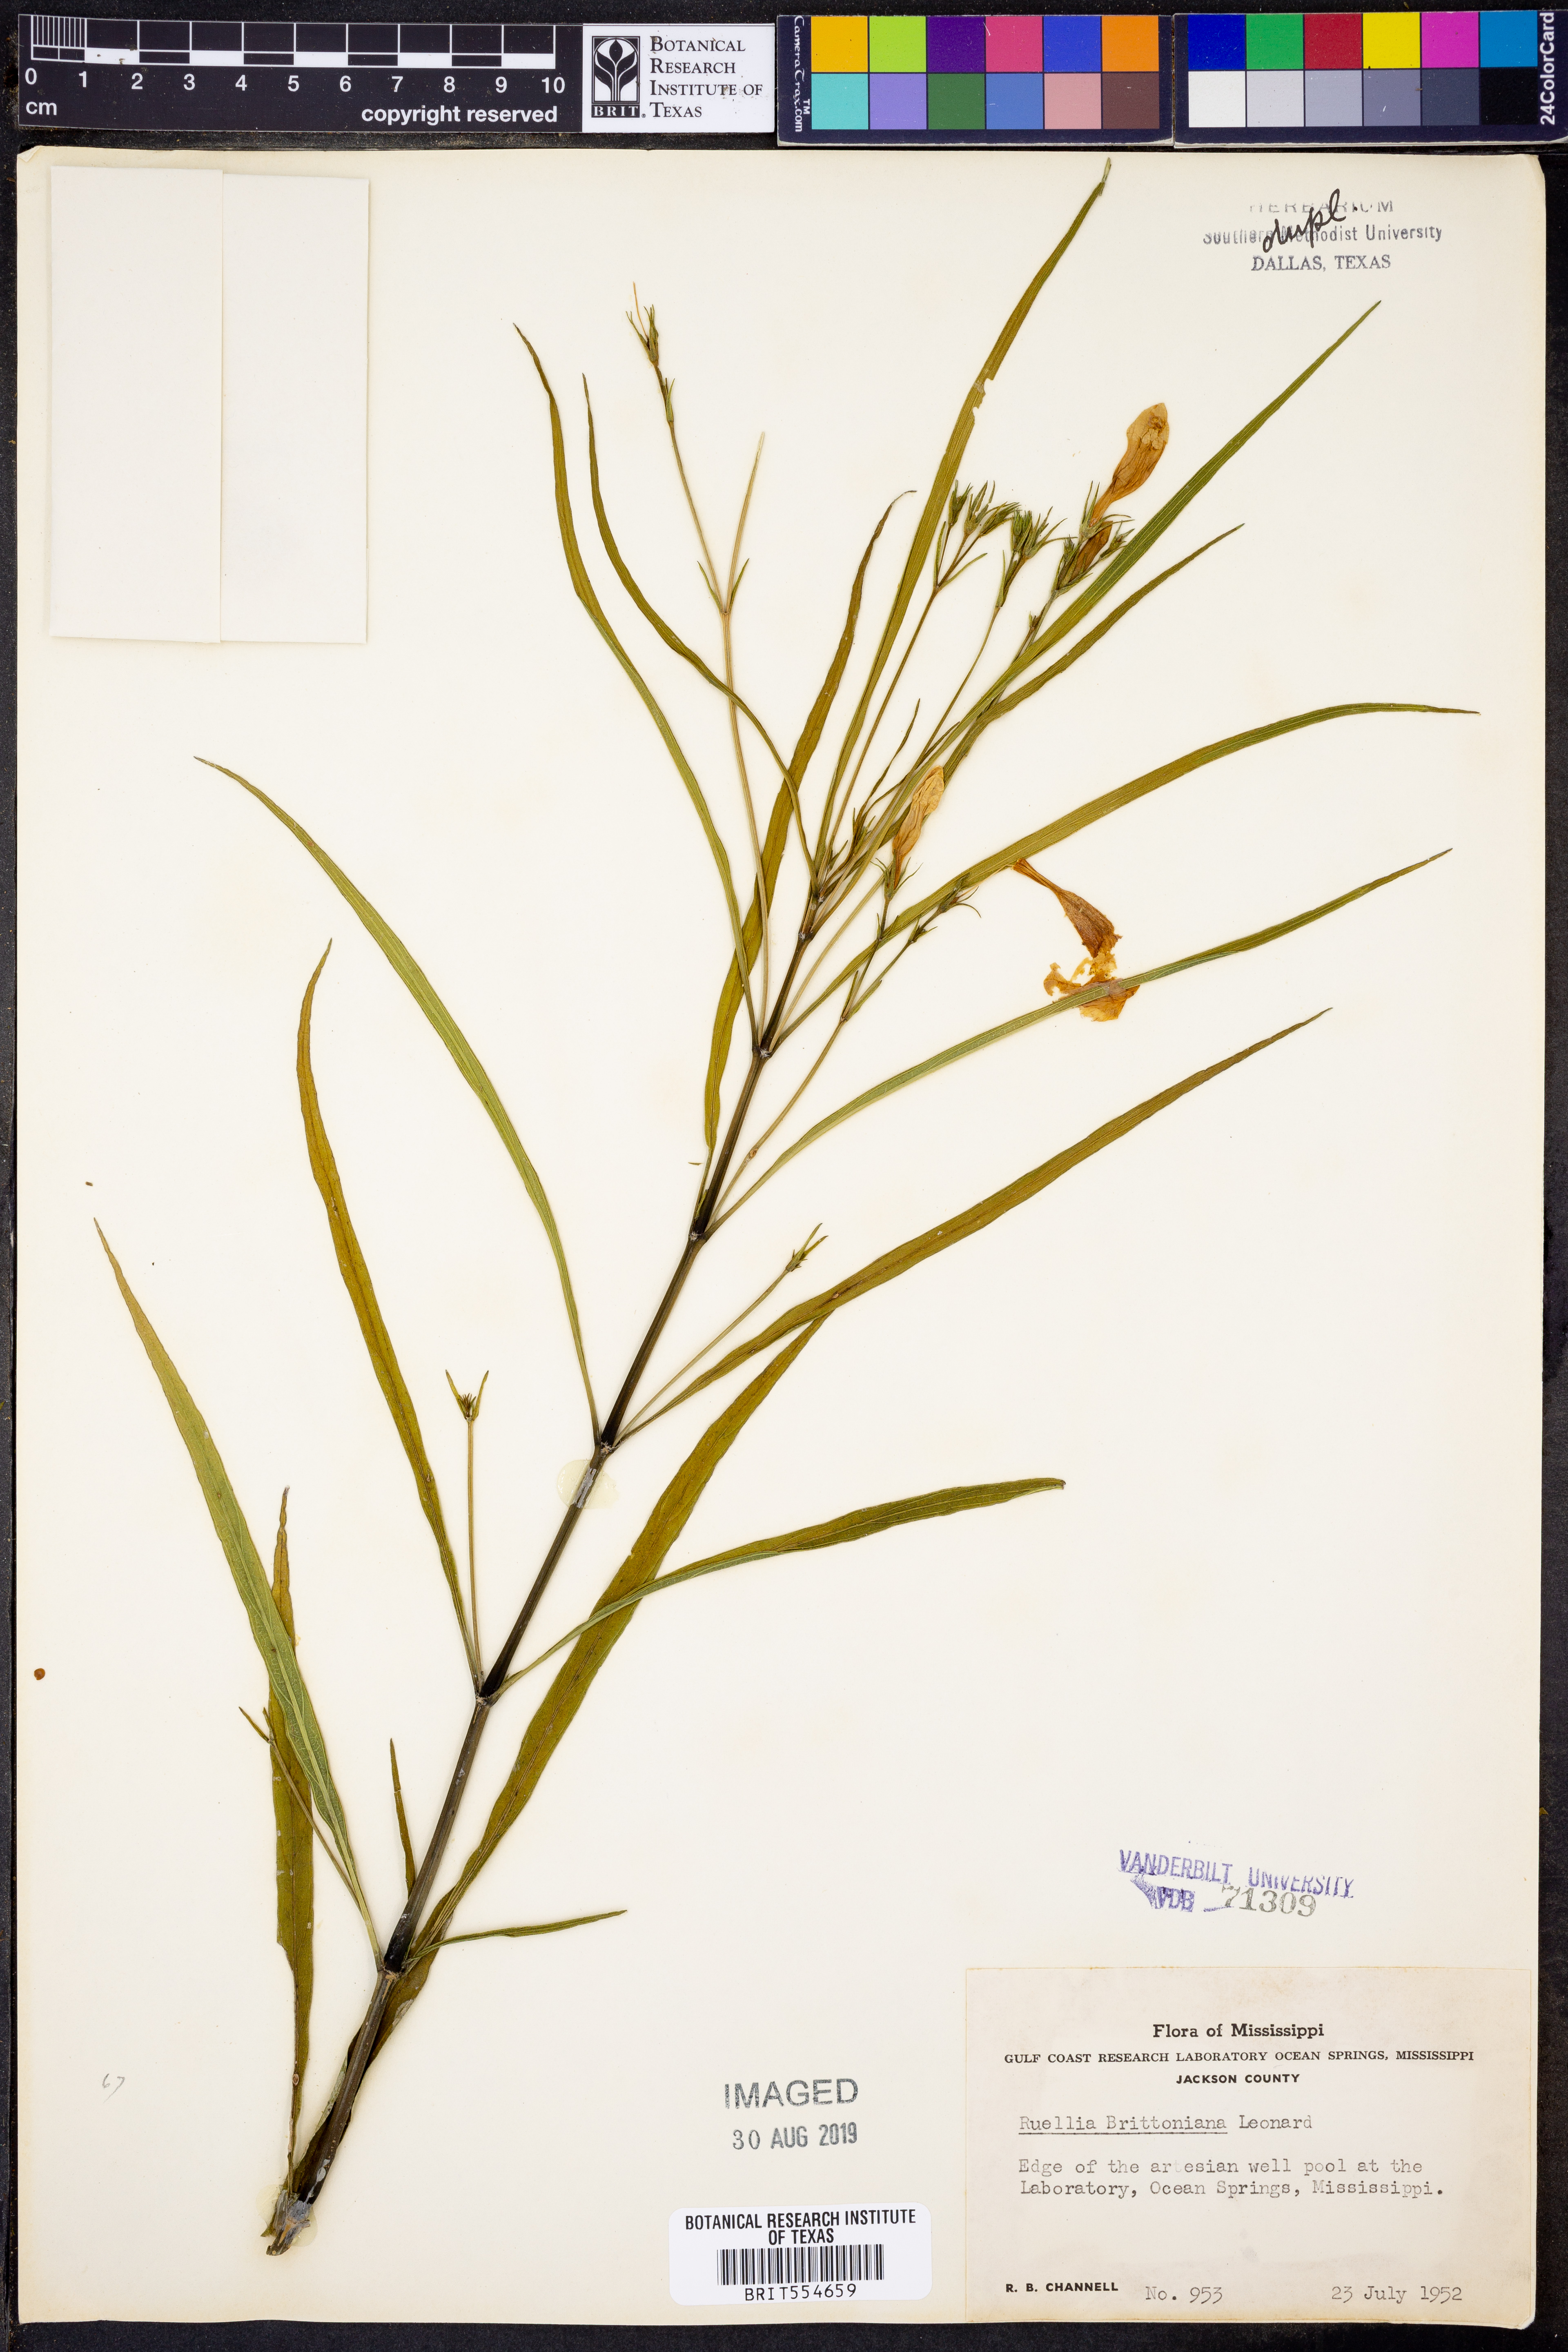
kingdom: Plantae
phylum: Tracheophyta
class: Magnoliopsida
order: Lamiales
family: Acanthaceae
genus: Ruellia
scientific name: Ruellia simplex
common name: Softseed wild petunia
